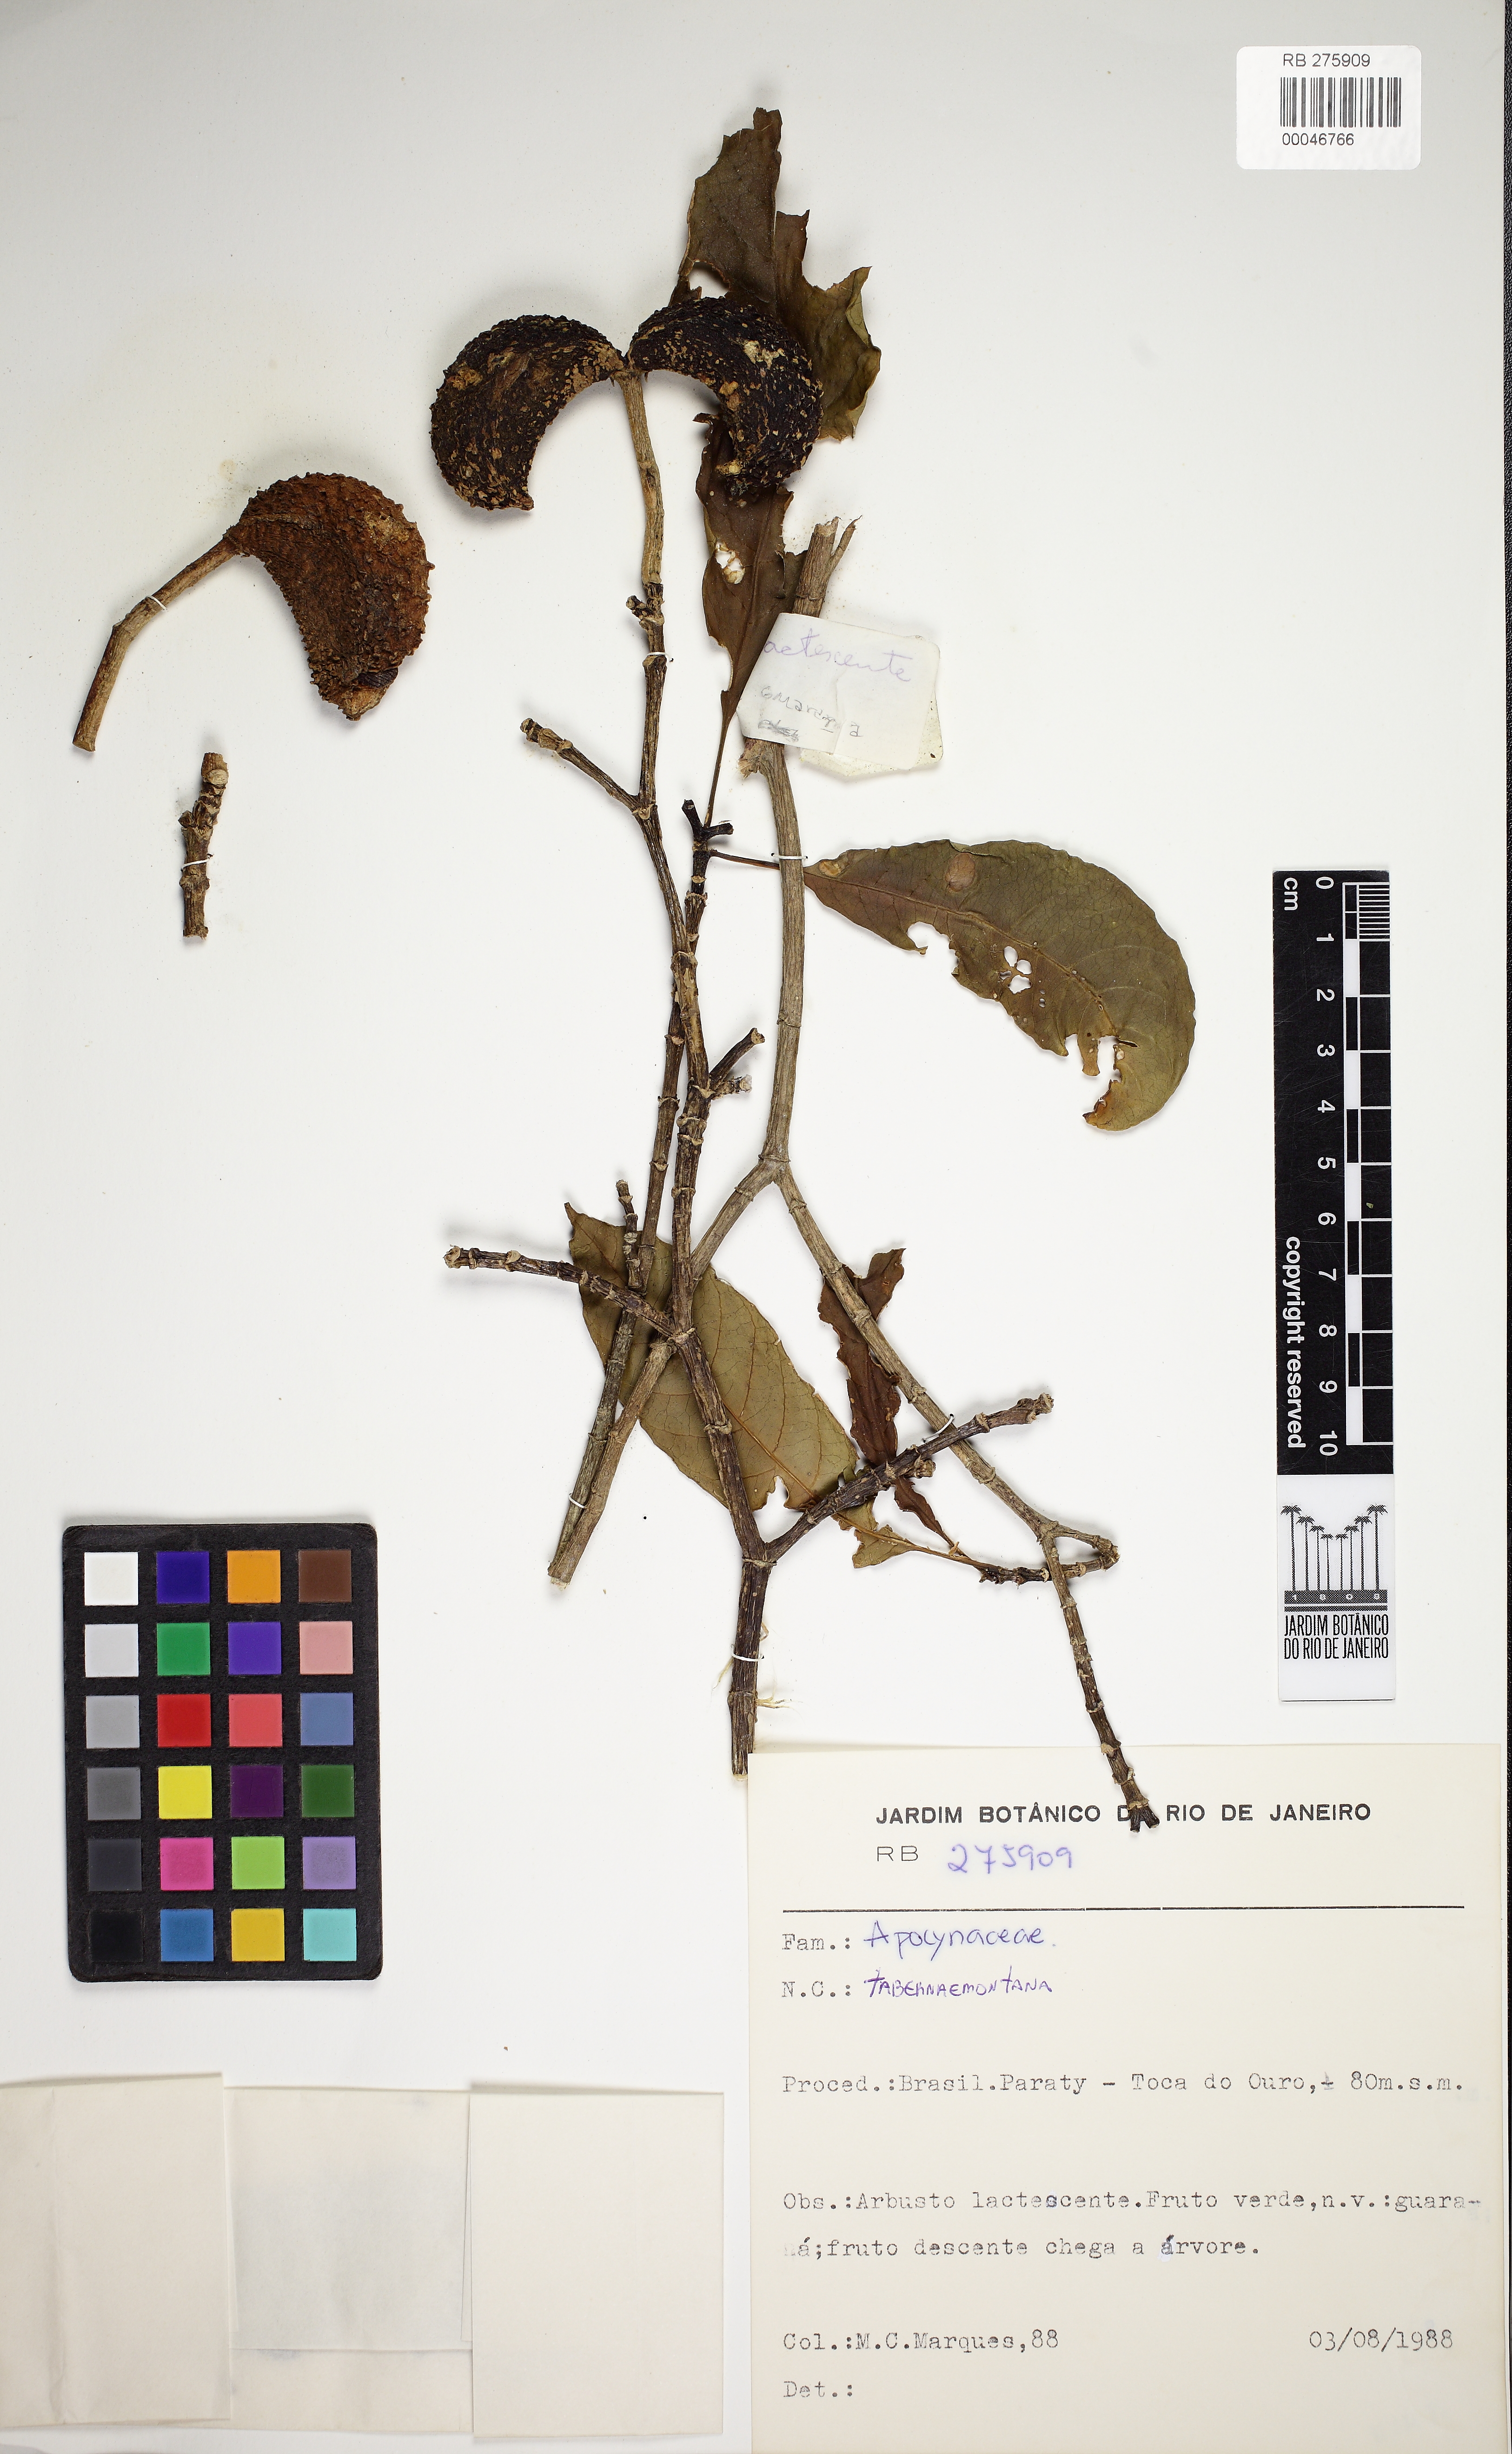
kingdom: Plantae
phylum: Tracheophyta
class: Magnoliopsida
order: Gentianales
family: Apocynaceae
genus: Tabernaemontana
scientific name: Tabernaemontana
